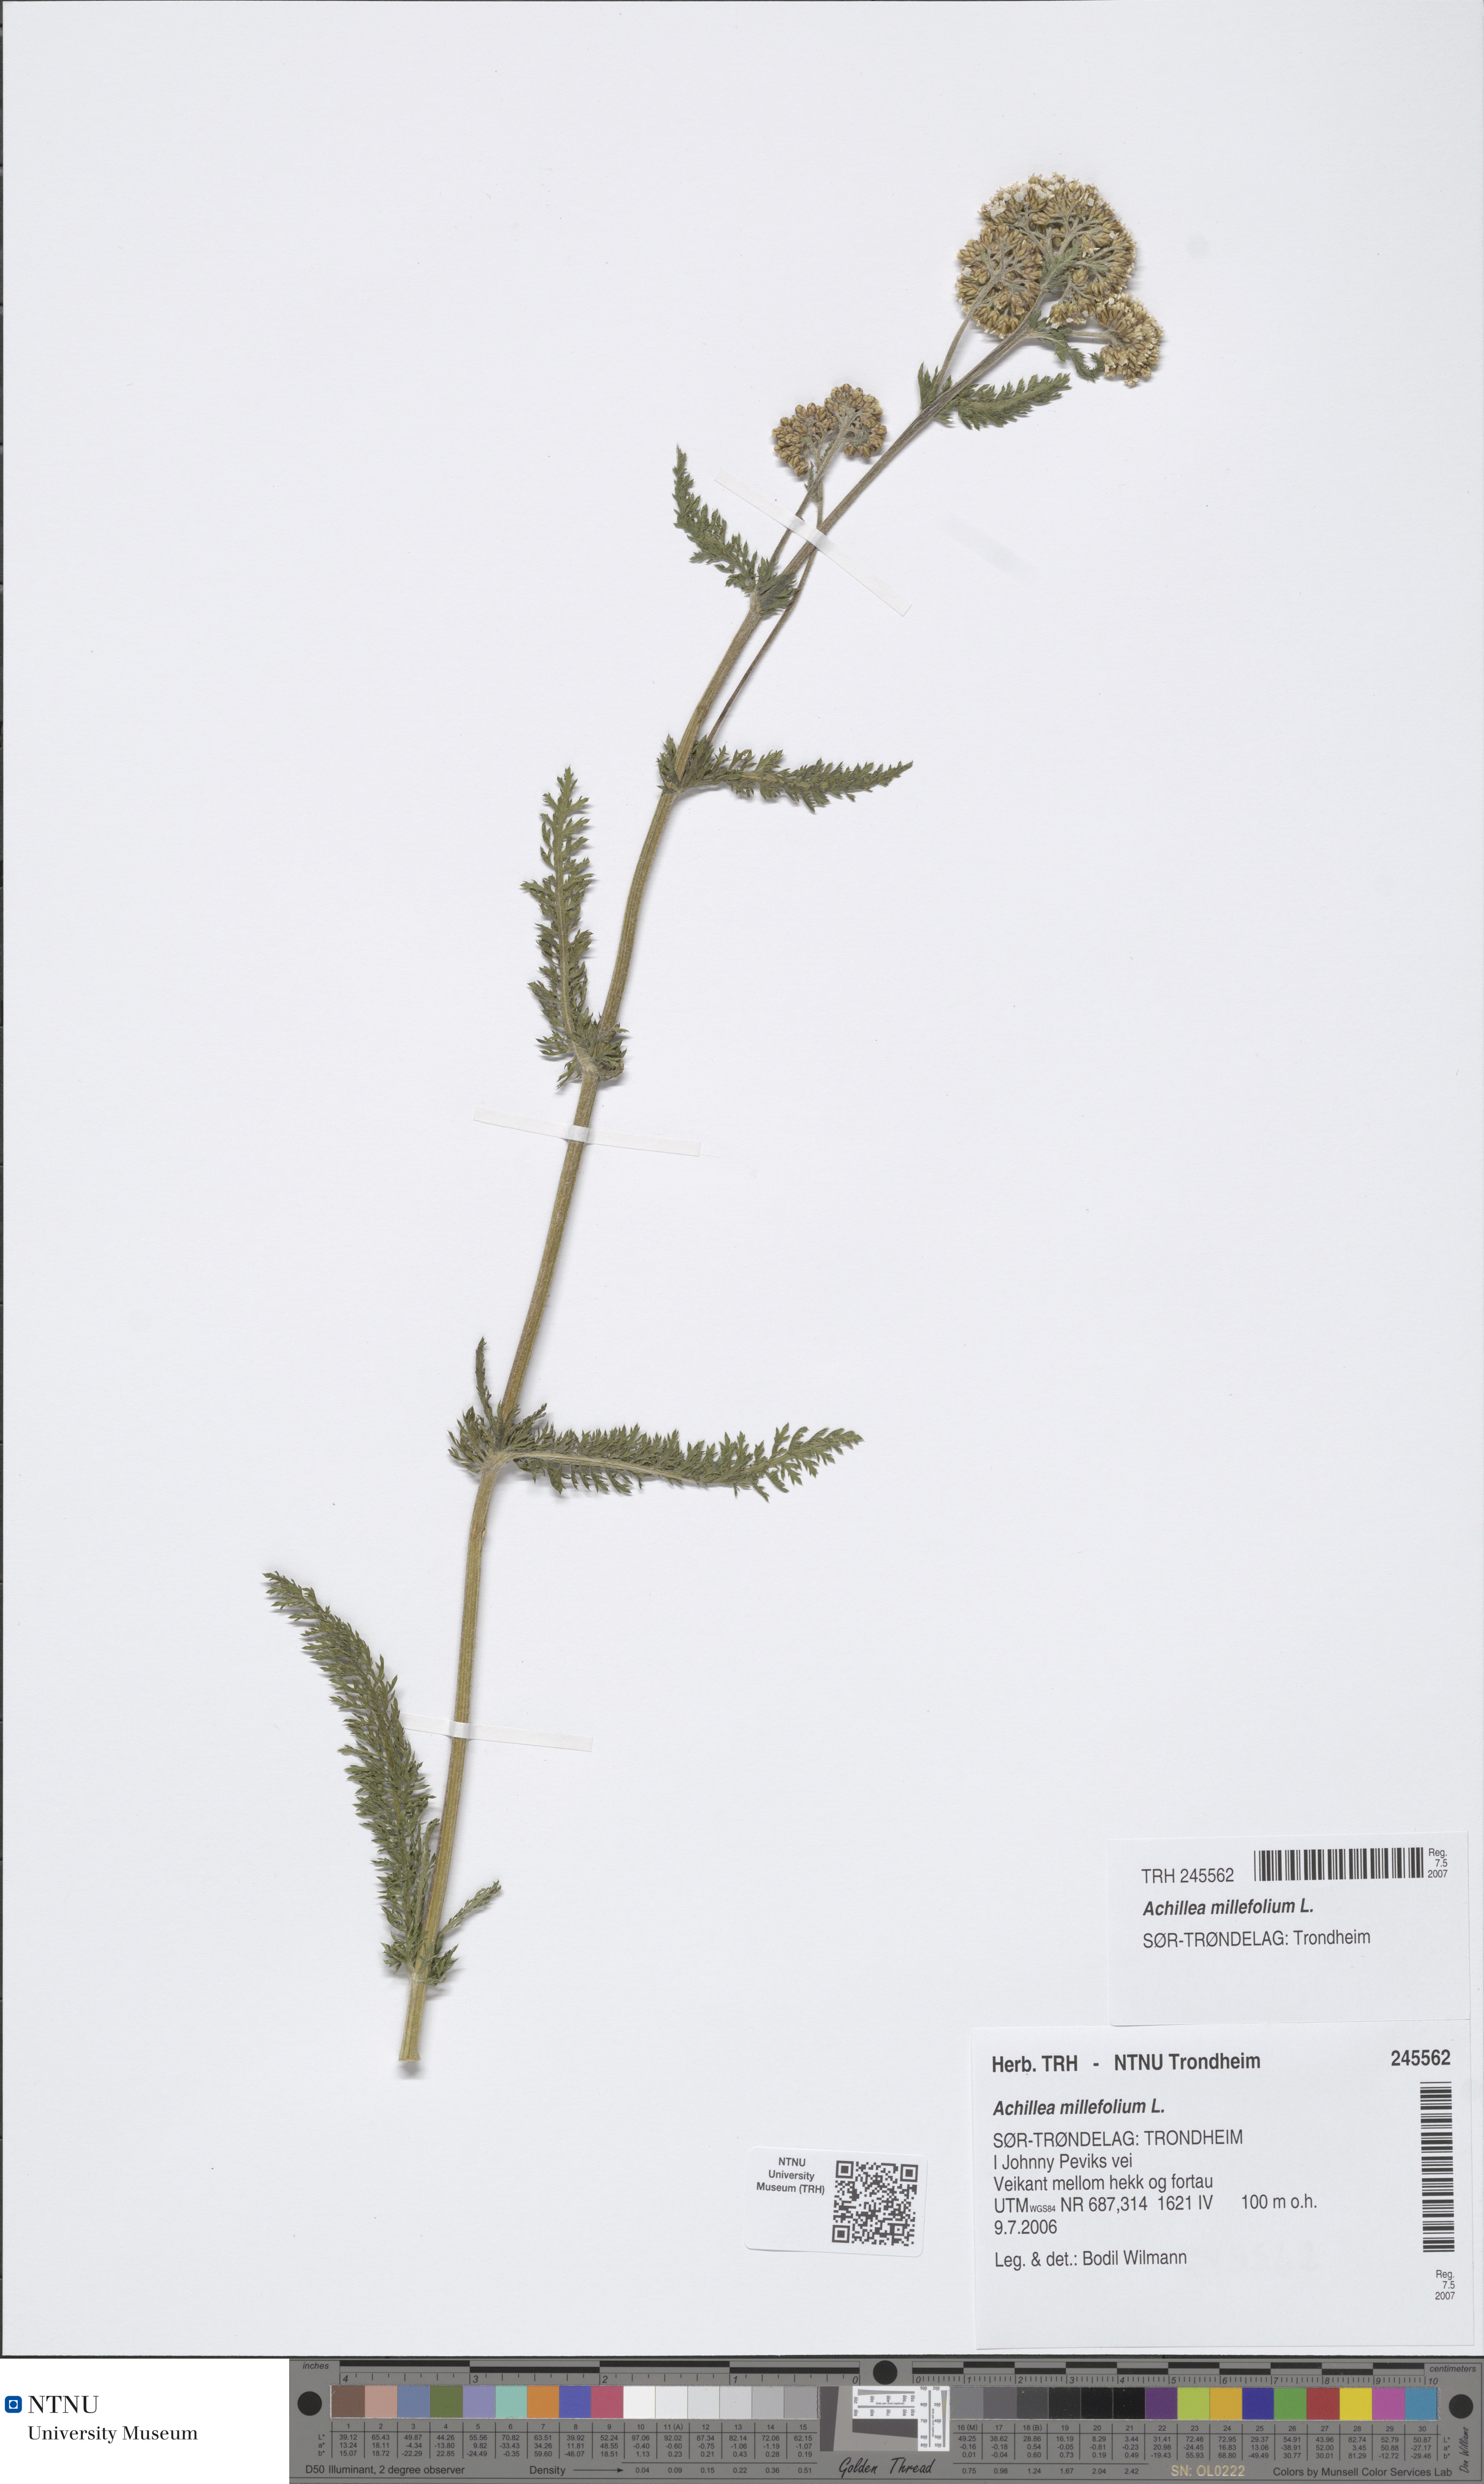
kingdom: Plantae
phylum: Tracheophyta
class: Magnoliopsida
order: Asterales
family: Asteraceae
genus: Achillea
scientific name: Achillea millefolium
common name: Yarrow
